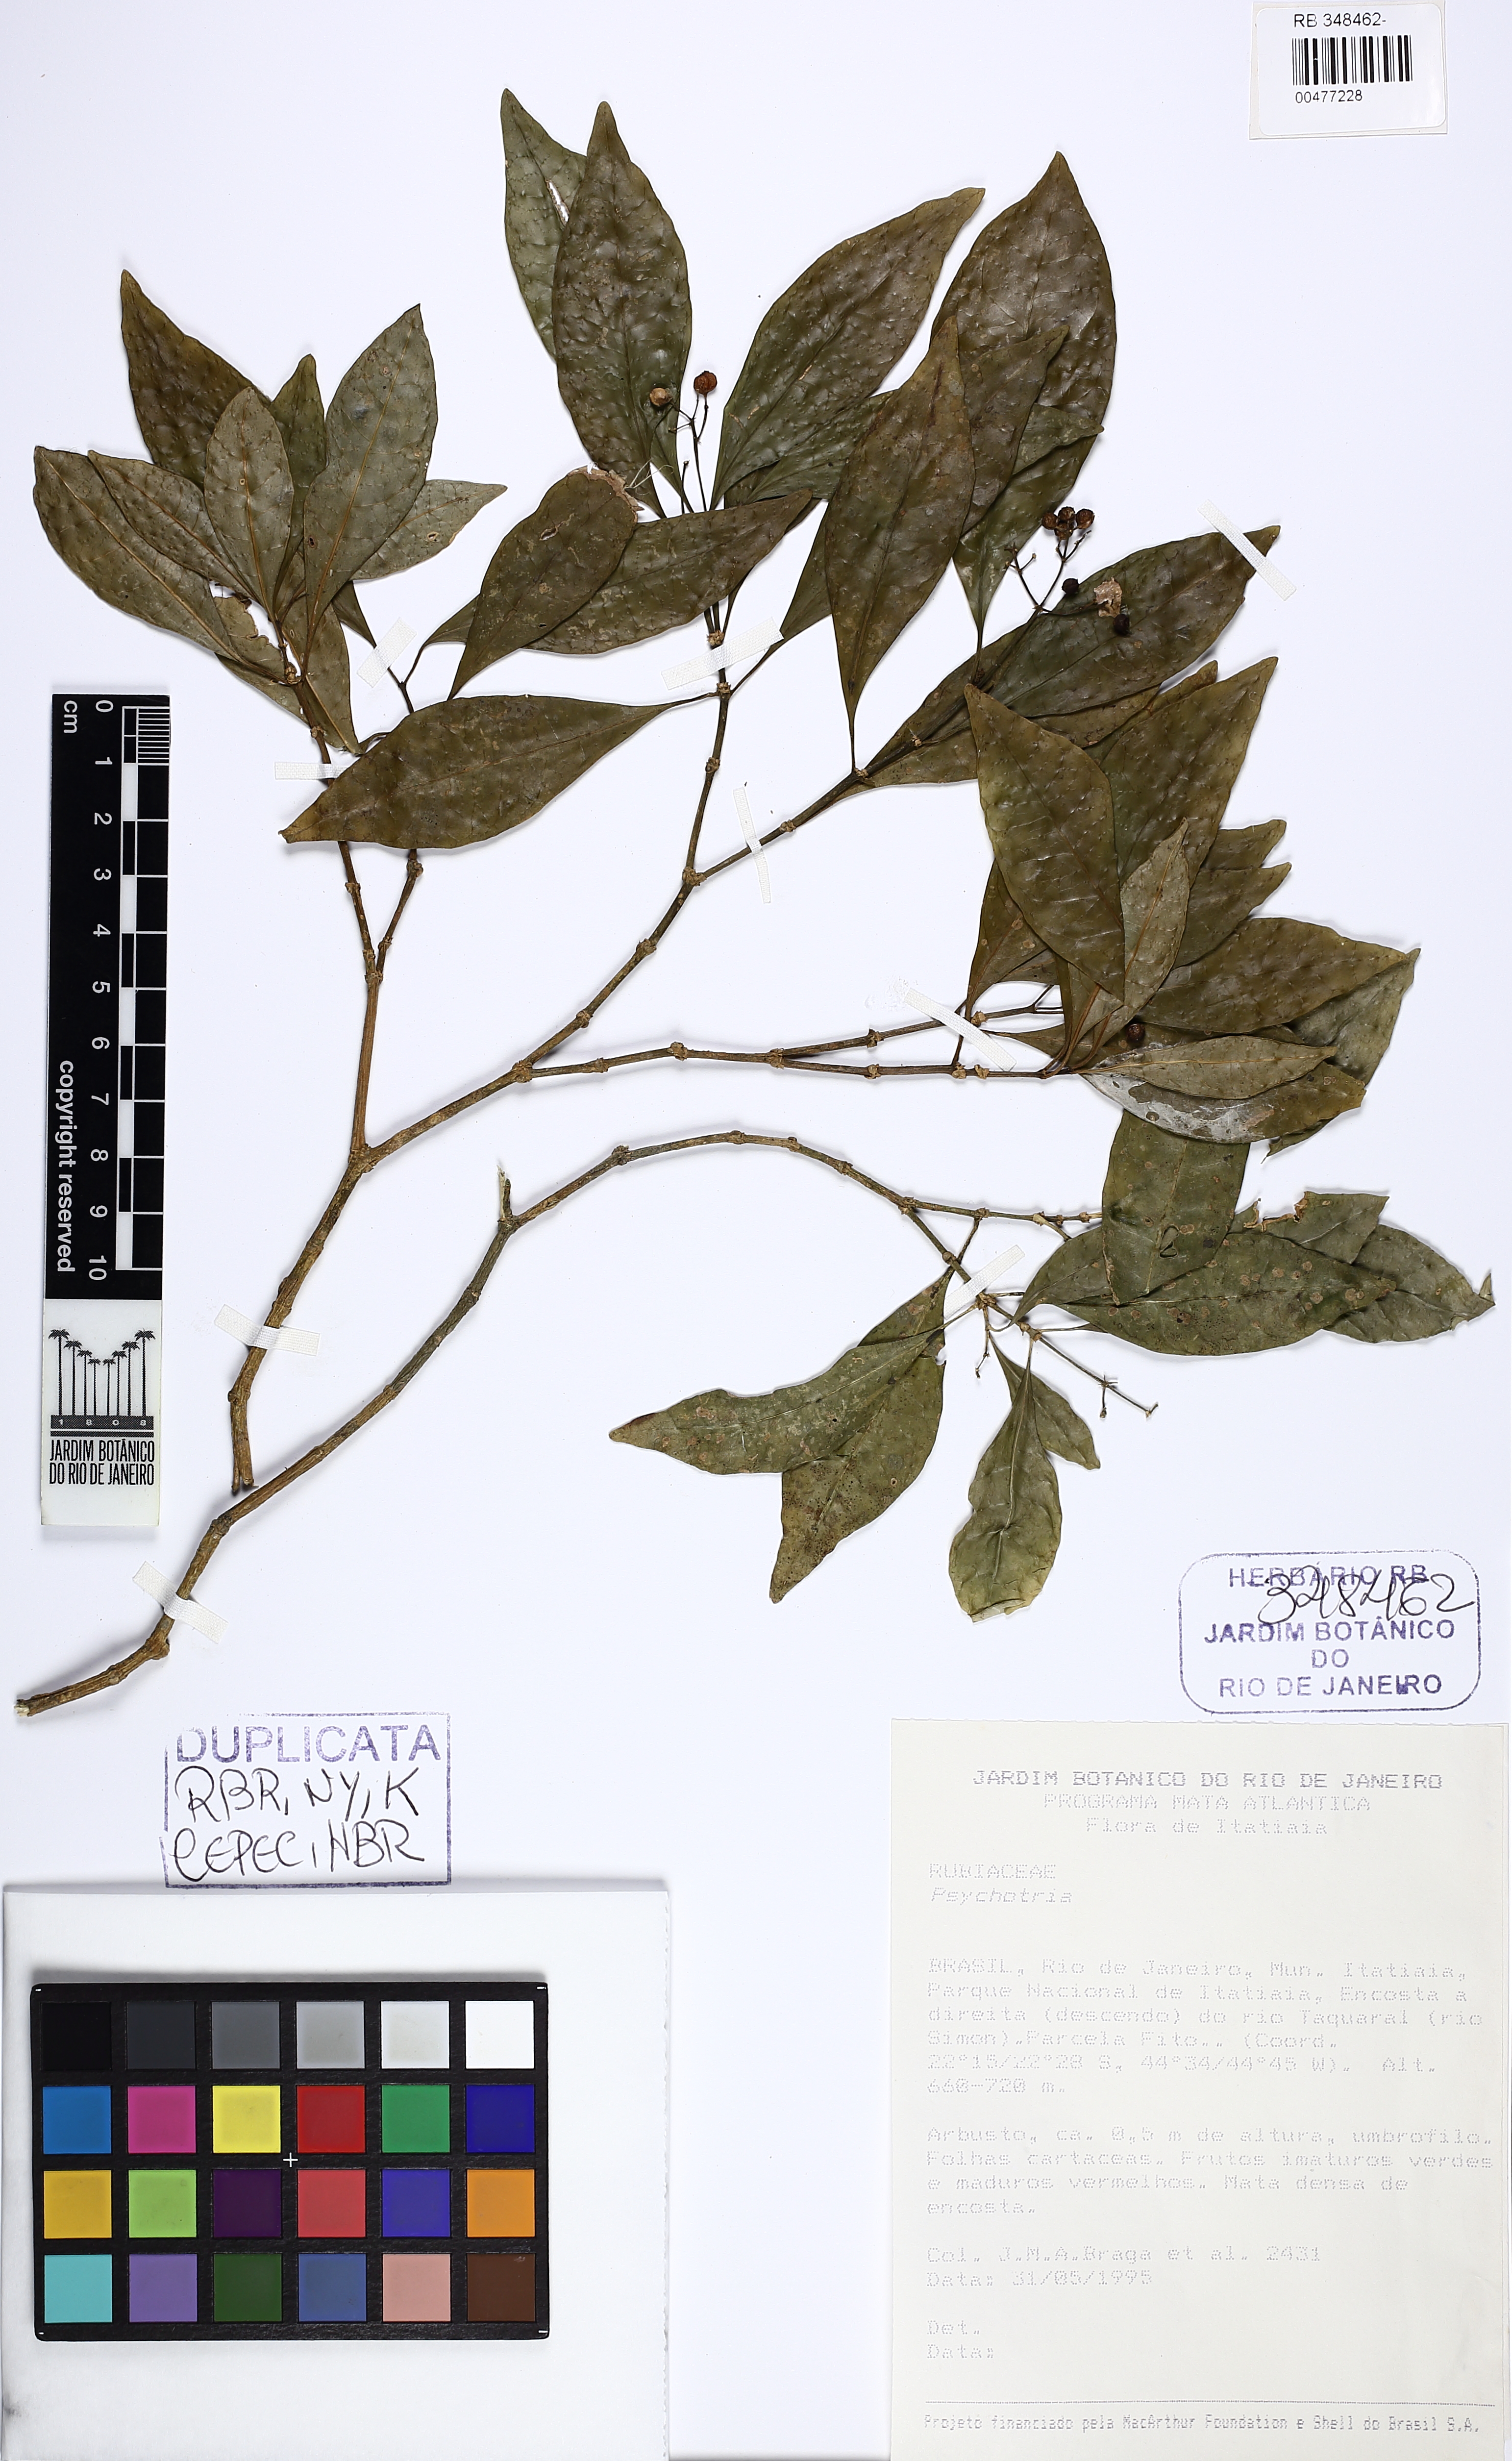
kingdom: Plantae
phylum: Tracheophyta
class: Magnoliopsida
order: Gentianales
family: Rubiaceae
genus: Psychotria
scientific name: Psychotria
